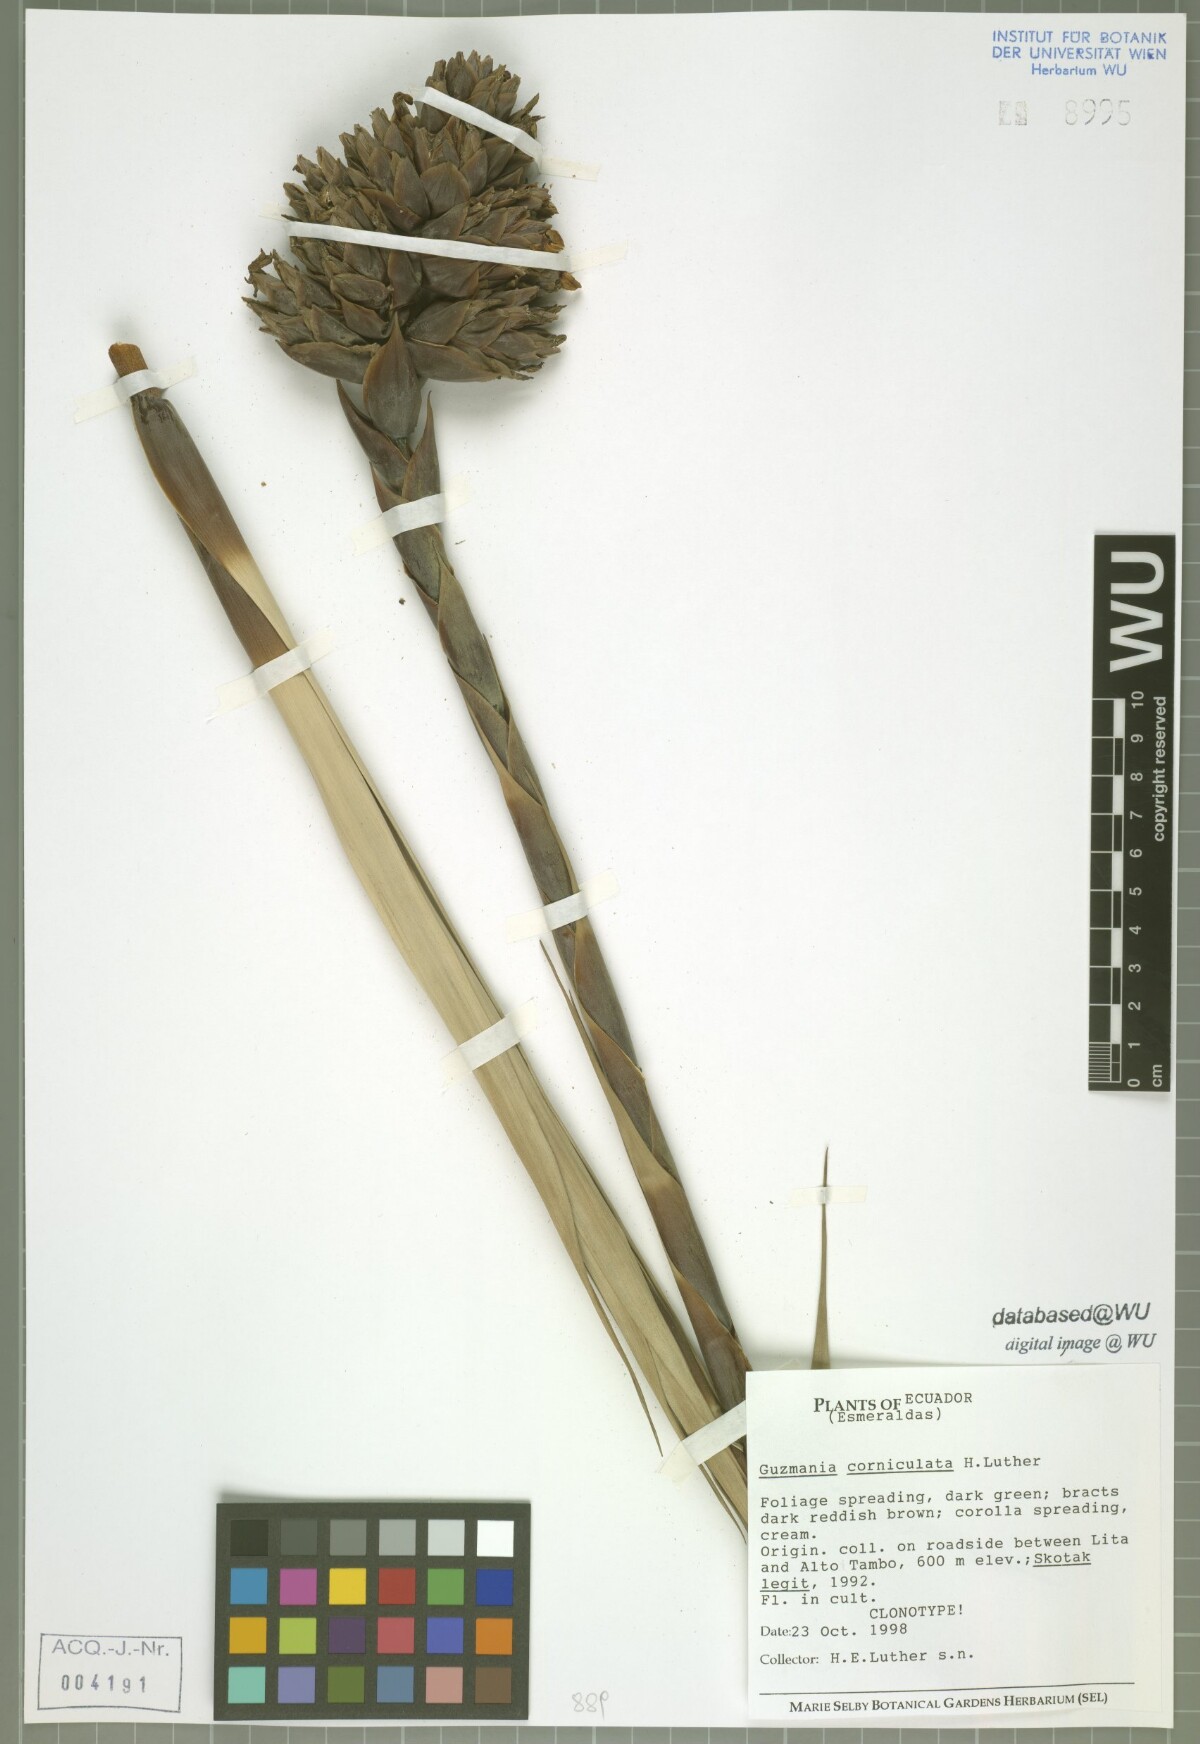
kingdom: Plantae
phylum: Tracheophyta
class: Liliopsida
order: Poales
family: Bromeliaceae
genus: Guzmania
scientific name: Guzmania corniculata
